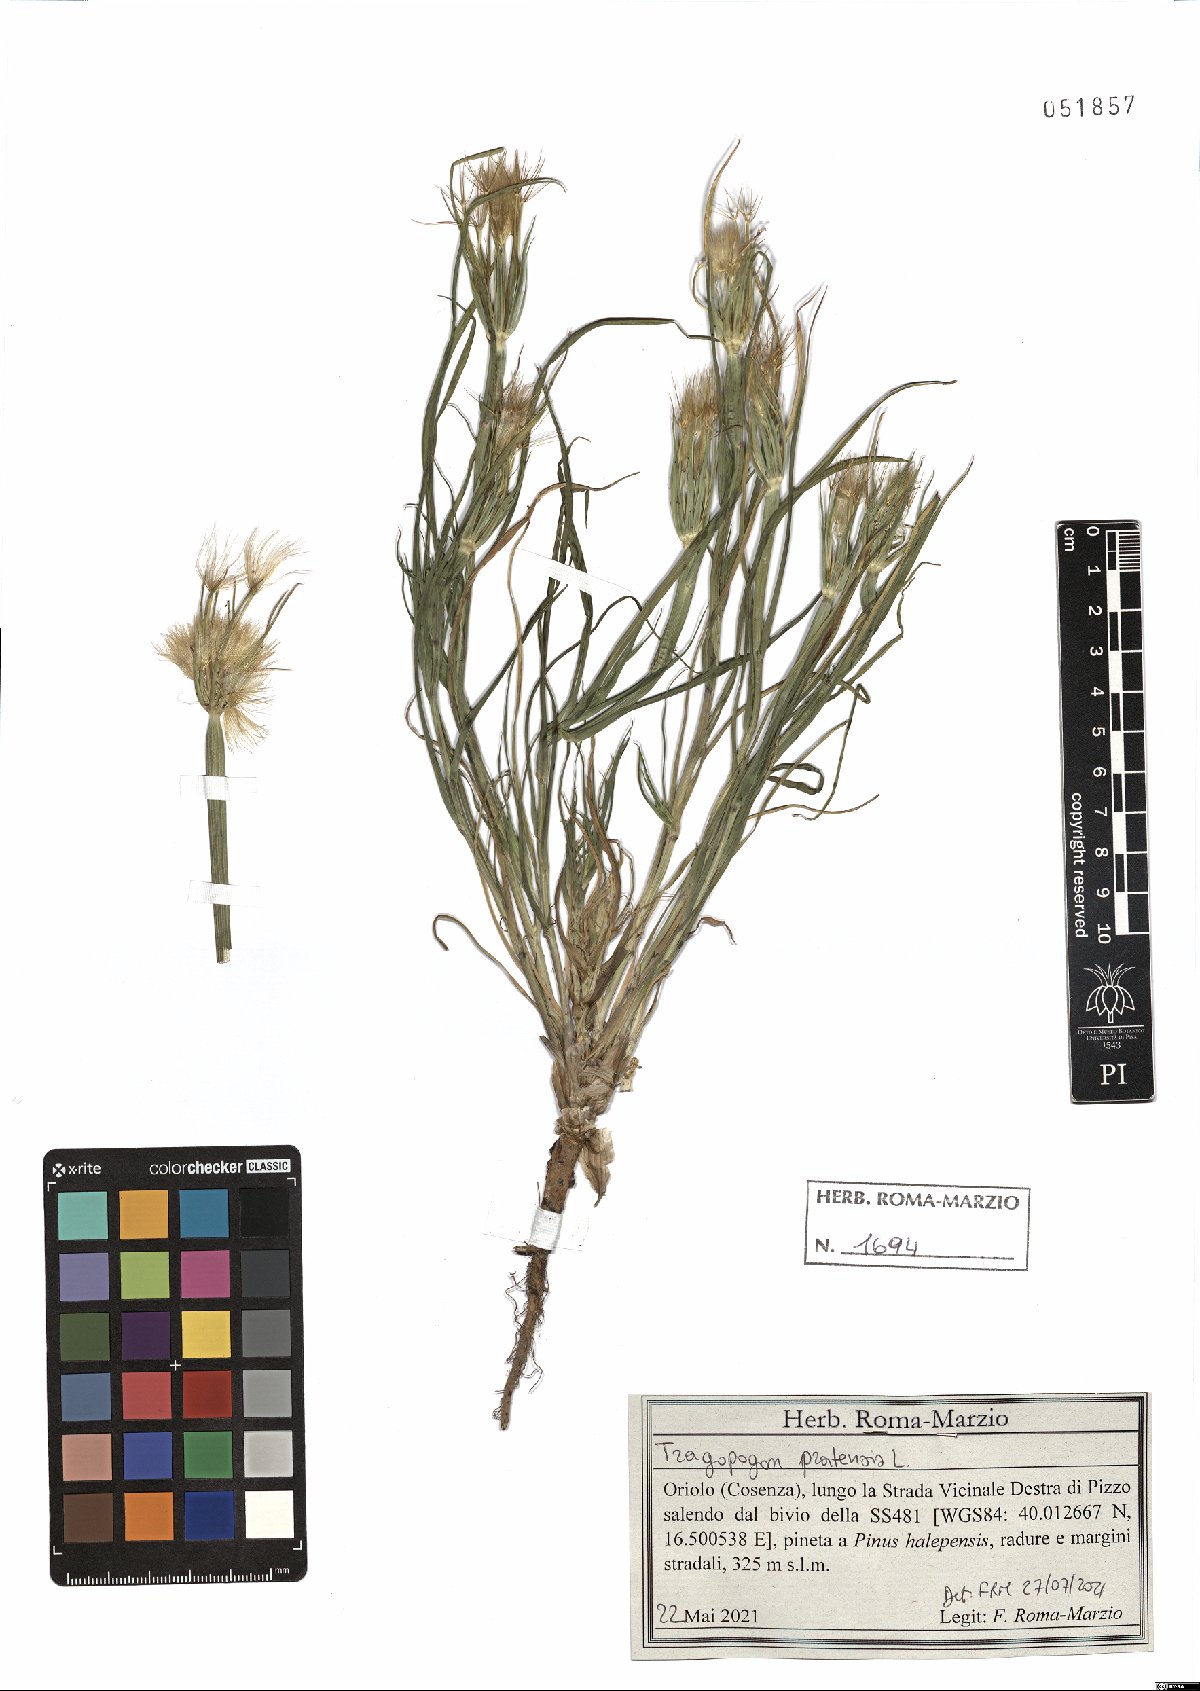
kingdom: Plantae
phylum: Tracheophyta
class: Magnoliopsida
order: Asterales
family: Asteraceae
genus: Tragopogon
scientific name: Tragopogon pratensis
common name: Goat's-beard
